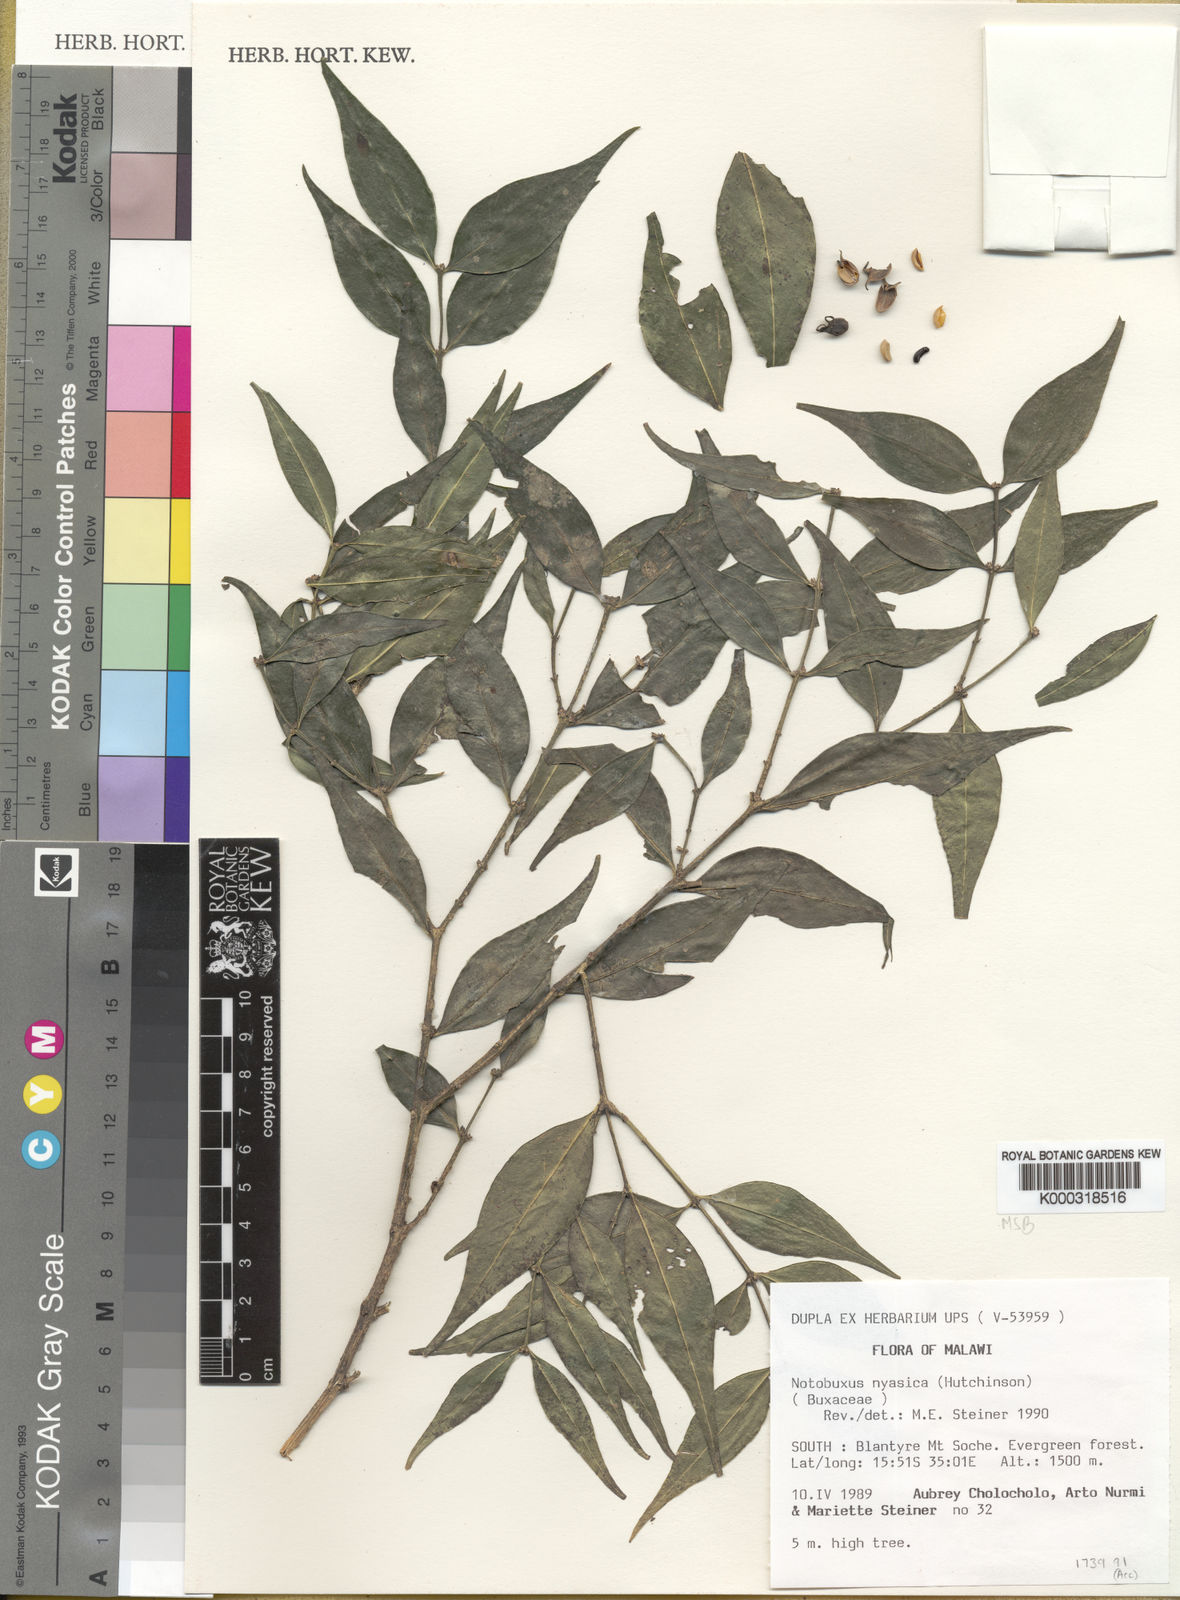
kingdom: Plantae
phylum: Tracheophyta
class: Magnoliopsida
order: Buxales
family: Buxaceae
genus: Buxus
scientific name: Buxus nyasica
